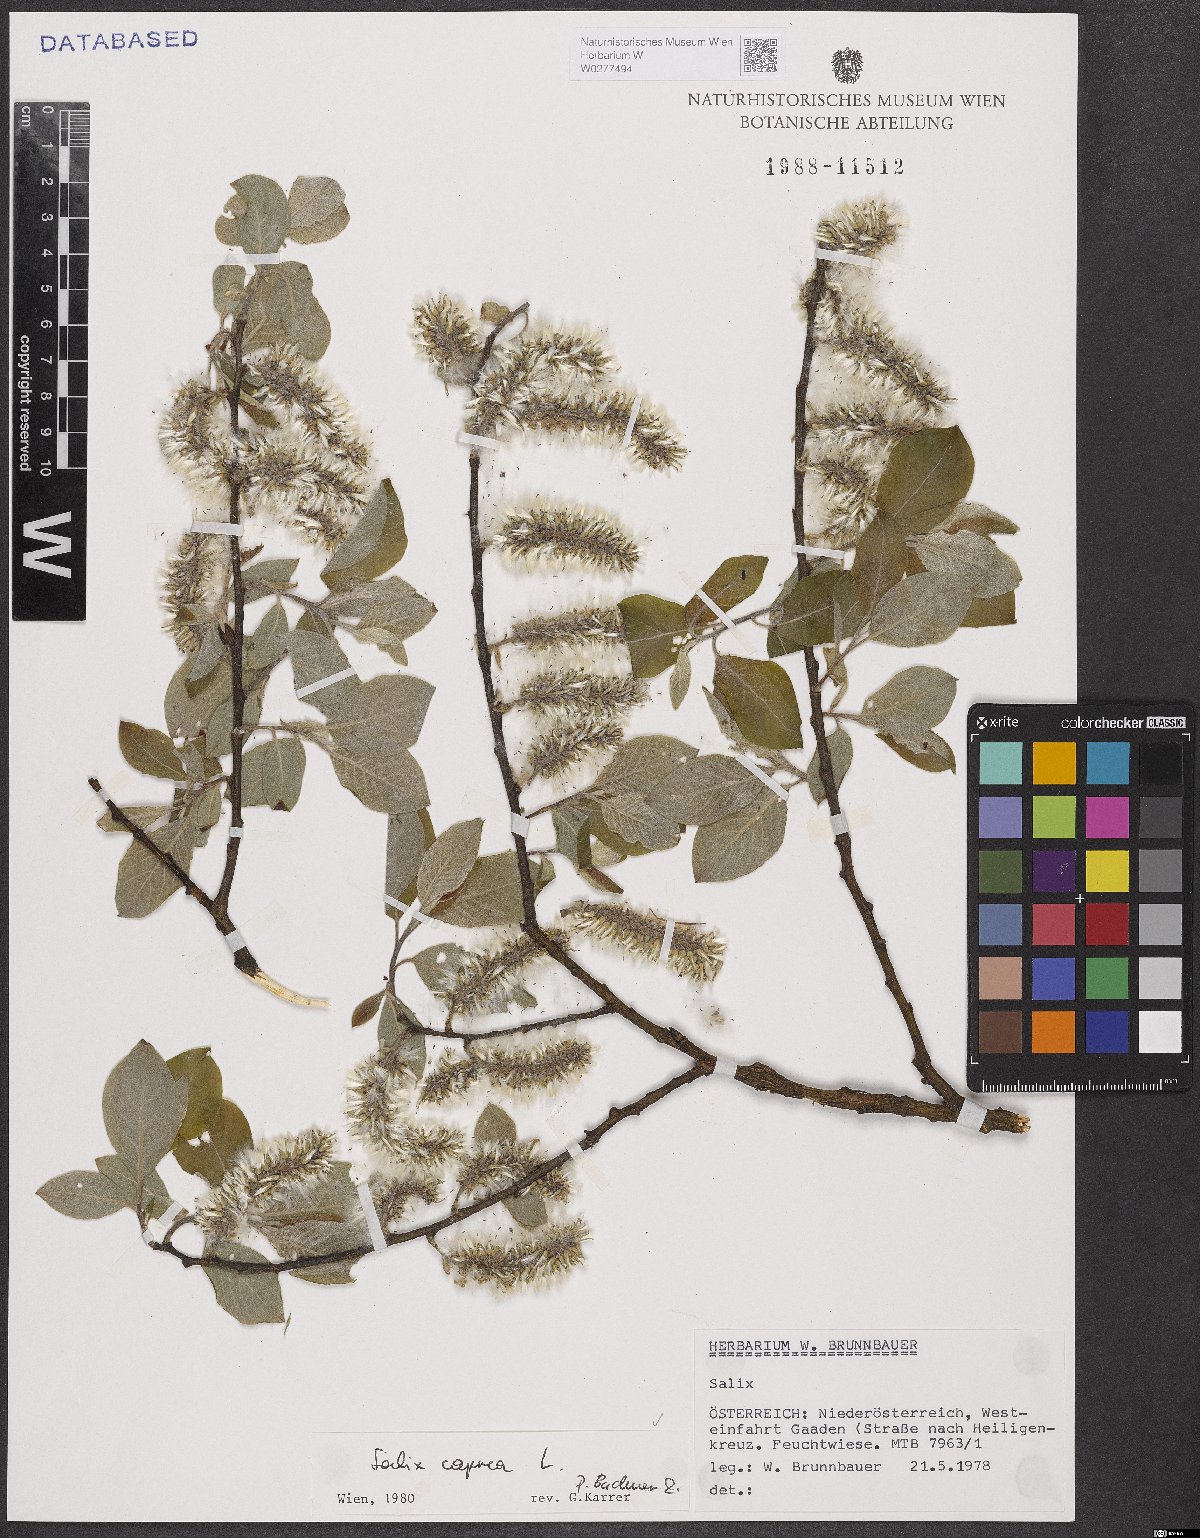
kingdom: Plantae
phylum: Tracheophyta
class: Magnoliopsida
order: Malpighiales
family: Salicaceae
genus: Salix
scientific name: Salix caprea
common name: Goat willow
